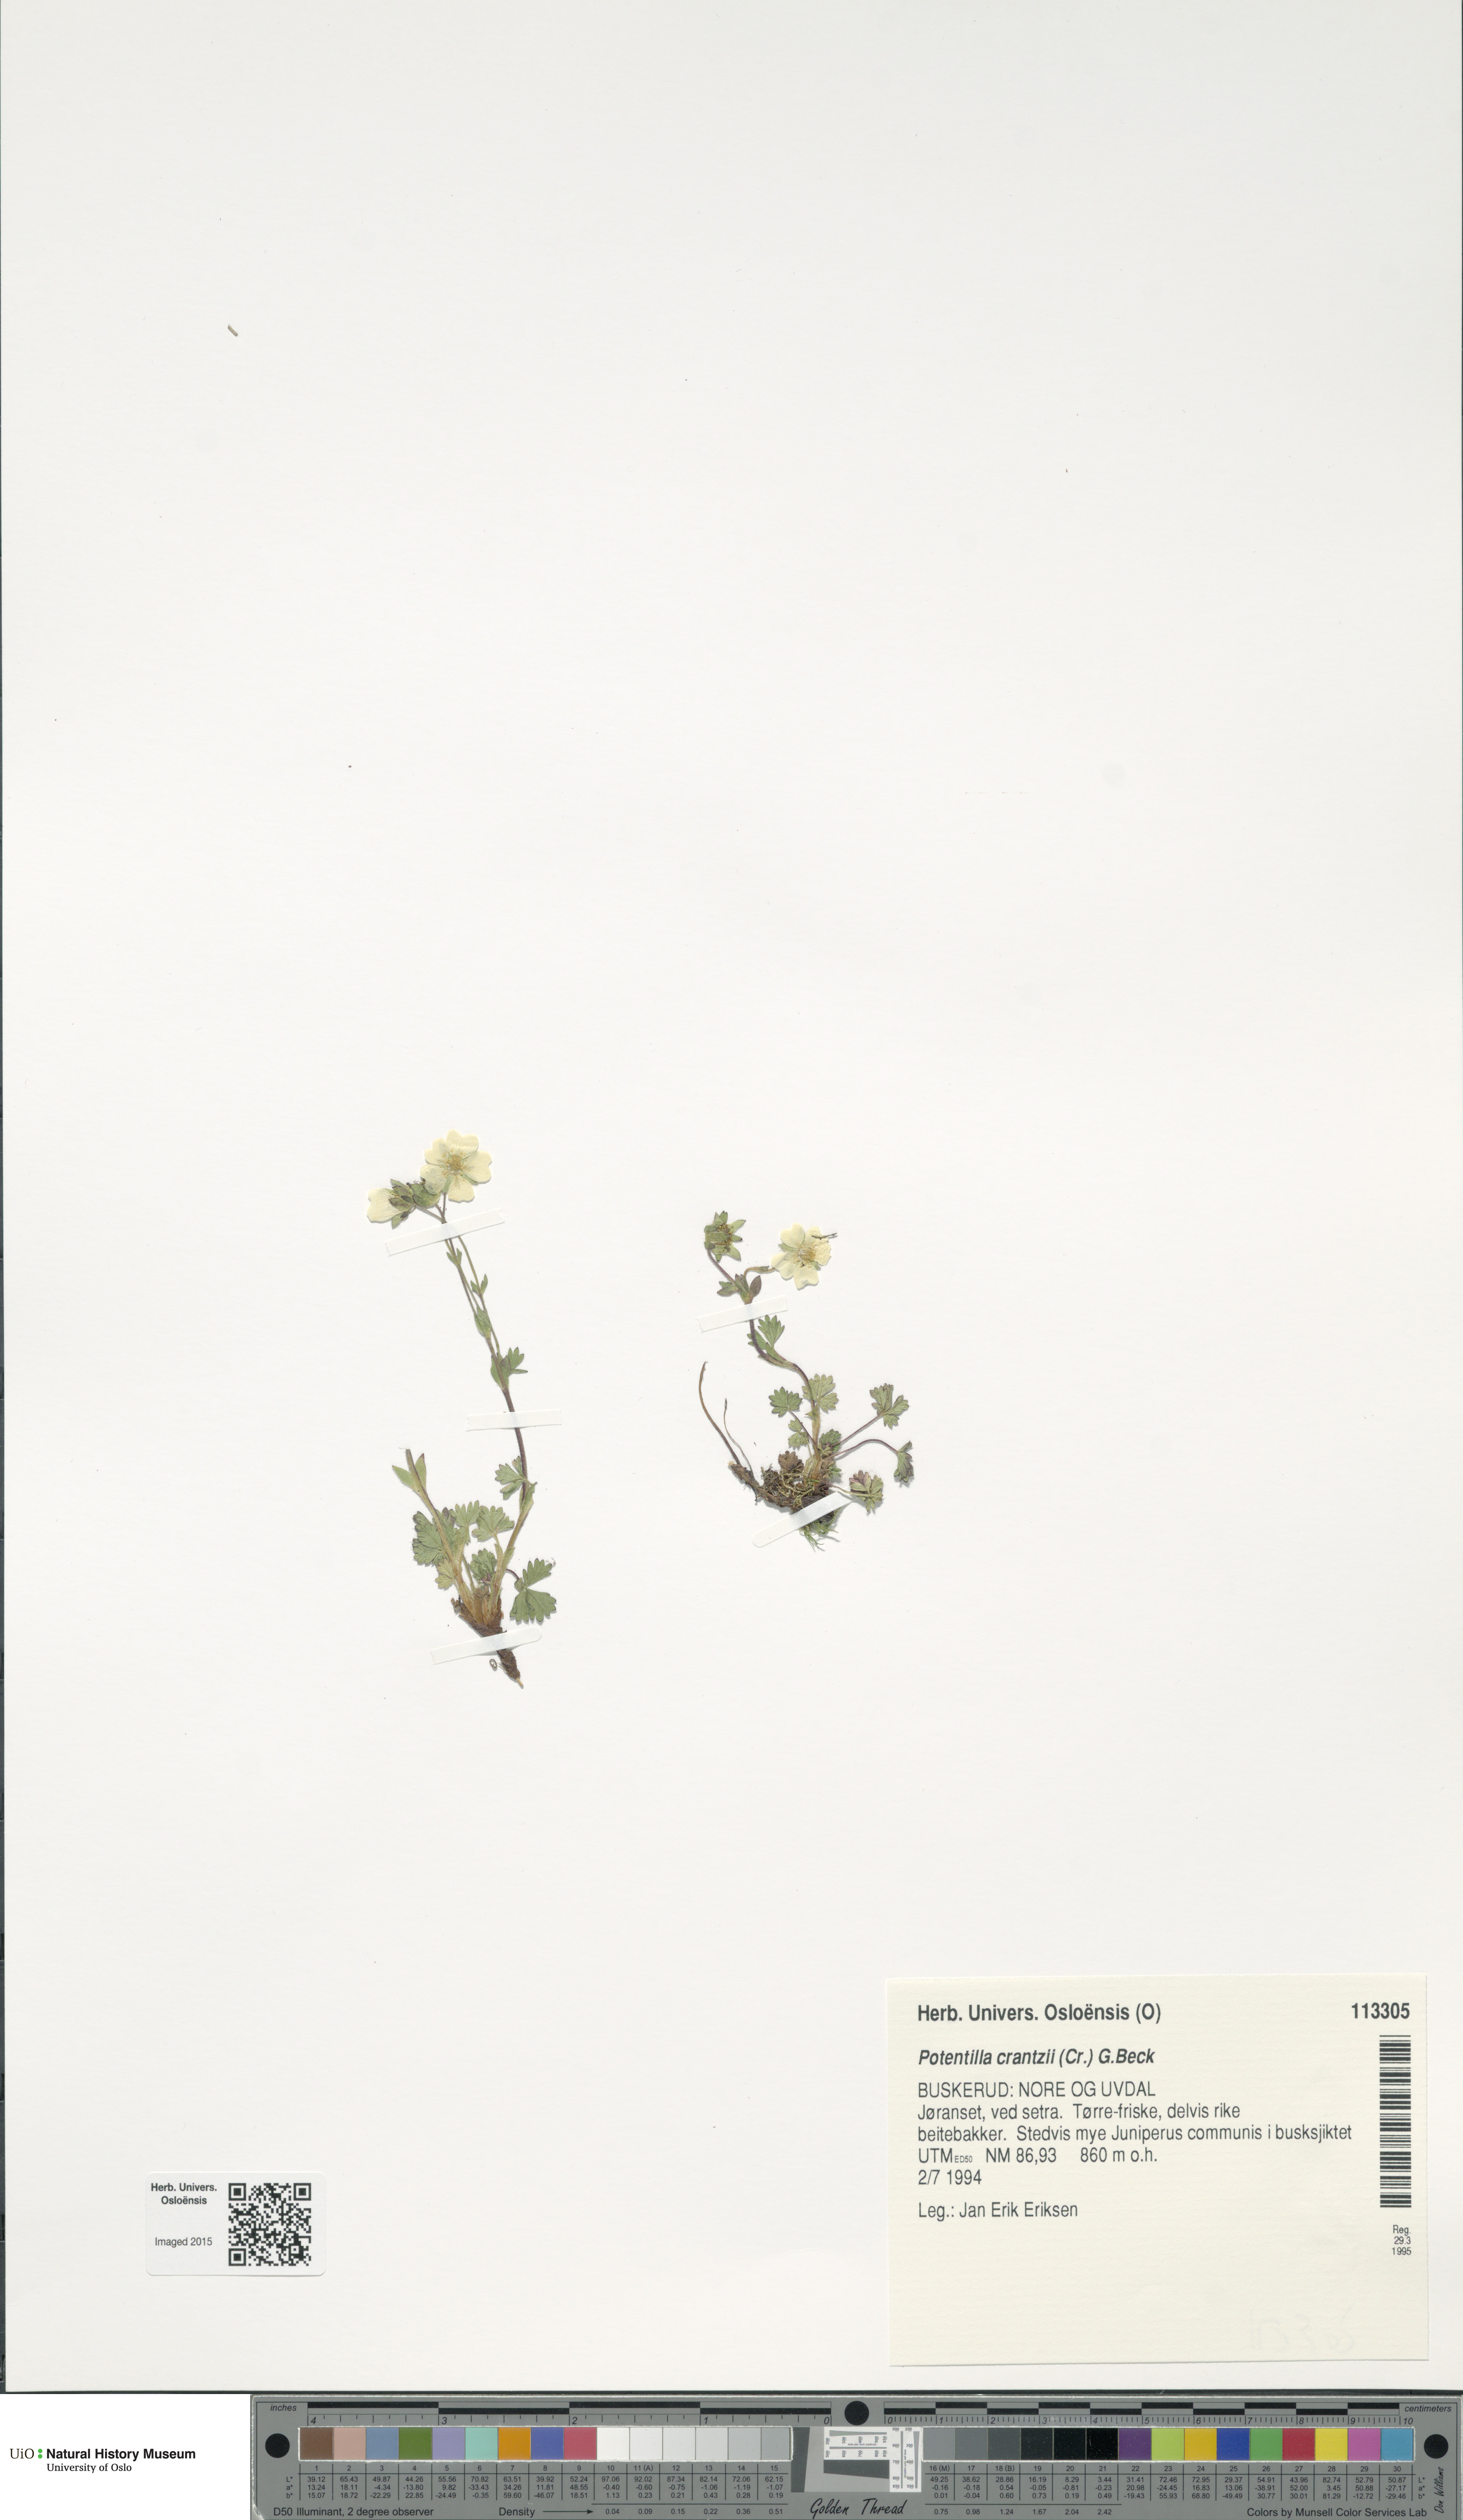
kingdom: Plantae
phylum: Tracheophyta
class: Magnoliopsida
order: Rosales
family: Rosaceae
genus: Potentilla
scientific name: Potentilla crantzii
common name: Alpine cinquefoil
